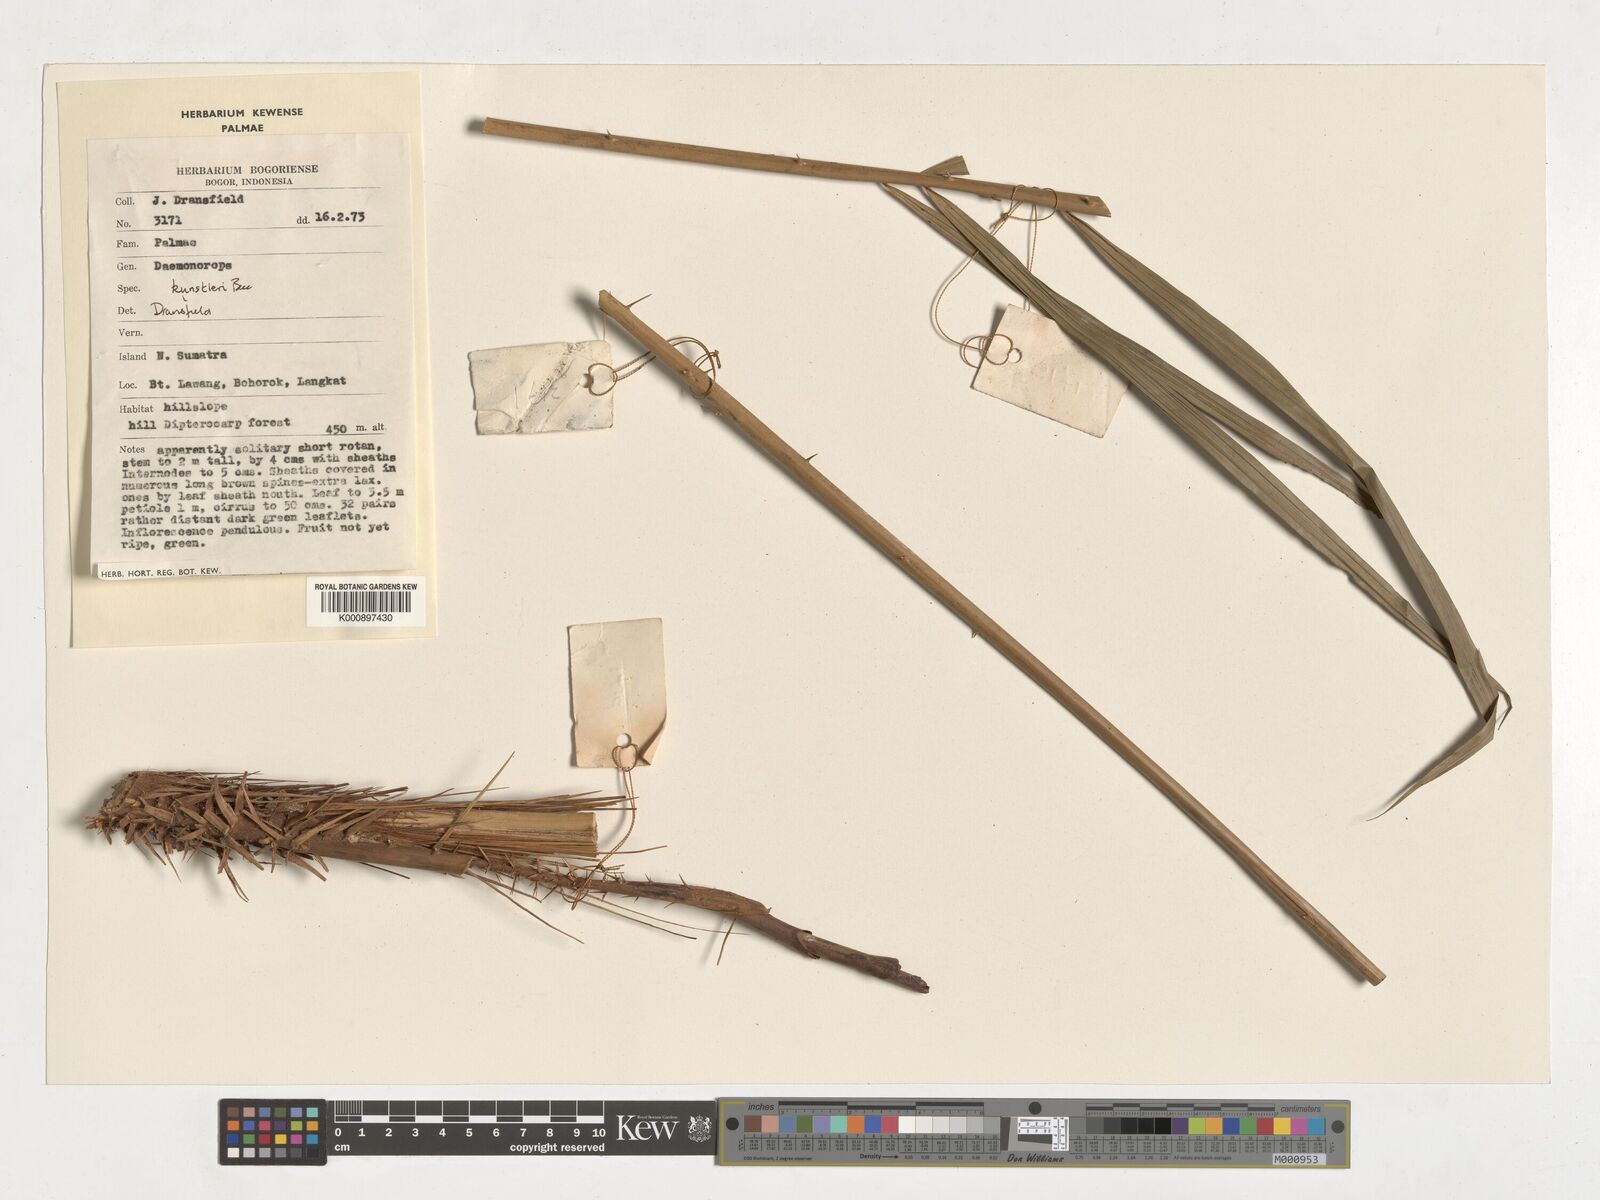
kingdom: Plantae
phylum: Tracheophyta
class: Liliopsida
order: Arecales
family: Arecaceae
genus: Calamus
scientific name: Calamus kunstleri
